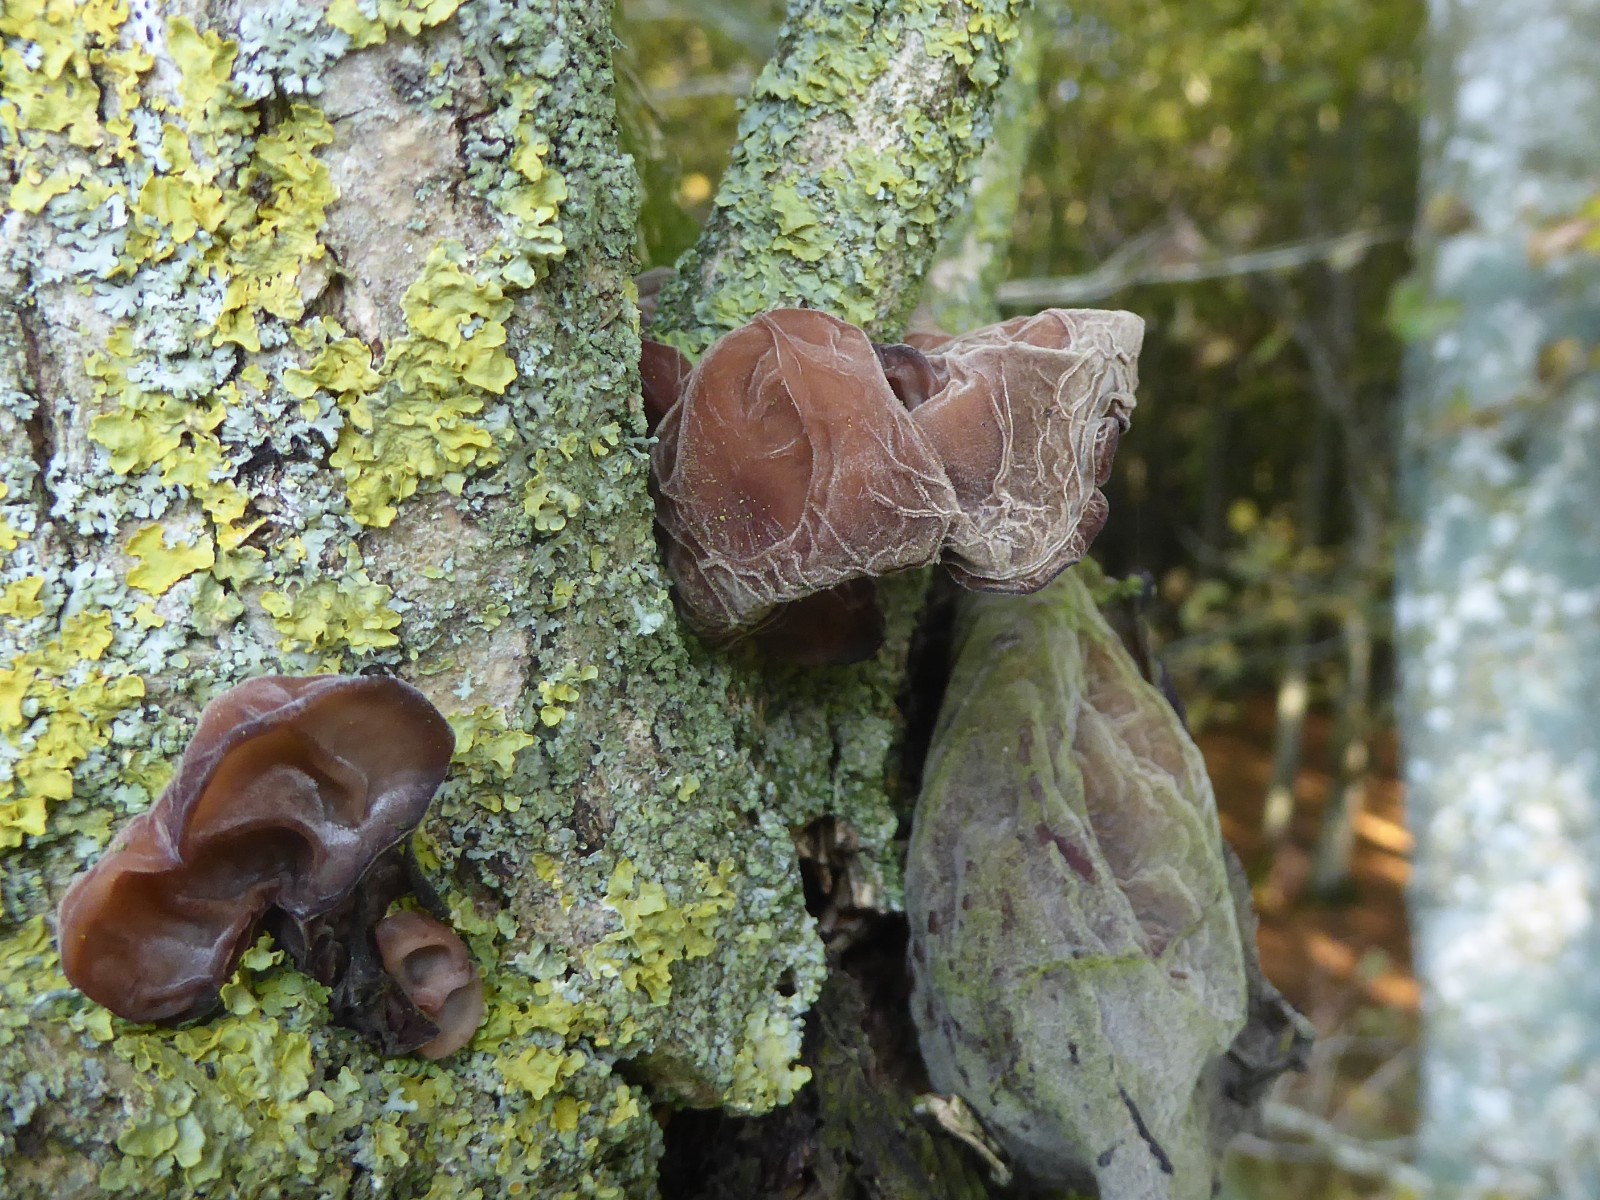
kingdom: Fungi
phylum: Basidiomycota
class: Agaricomycetes
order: Auriculariales
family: Auriculariaceae
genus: Auricularia
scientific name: Auricularia auricula-judae
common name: almindelig judasøre
